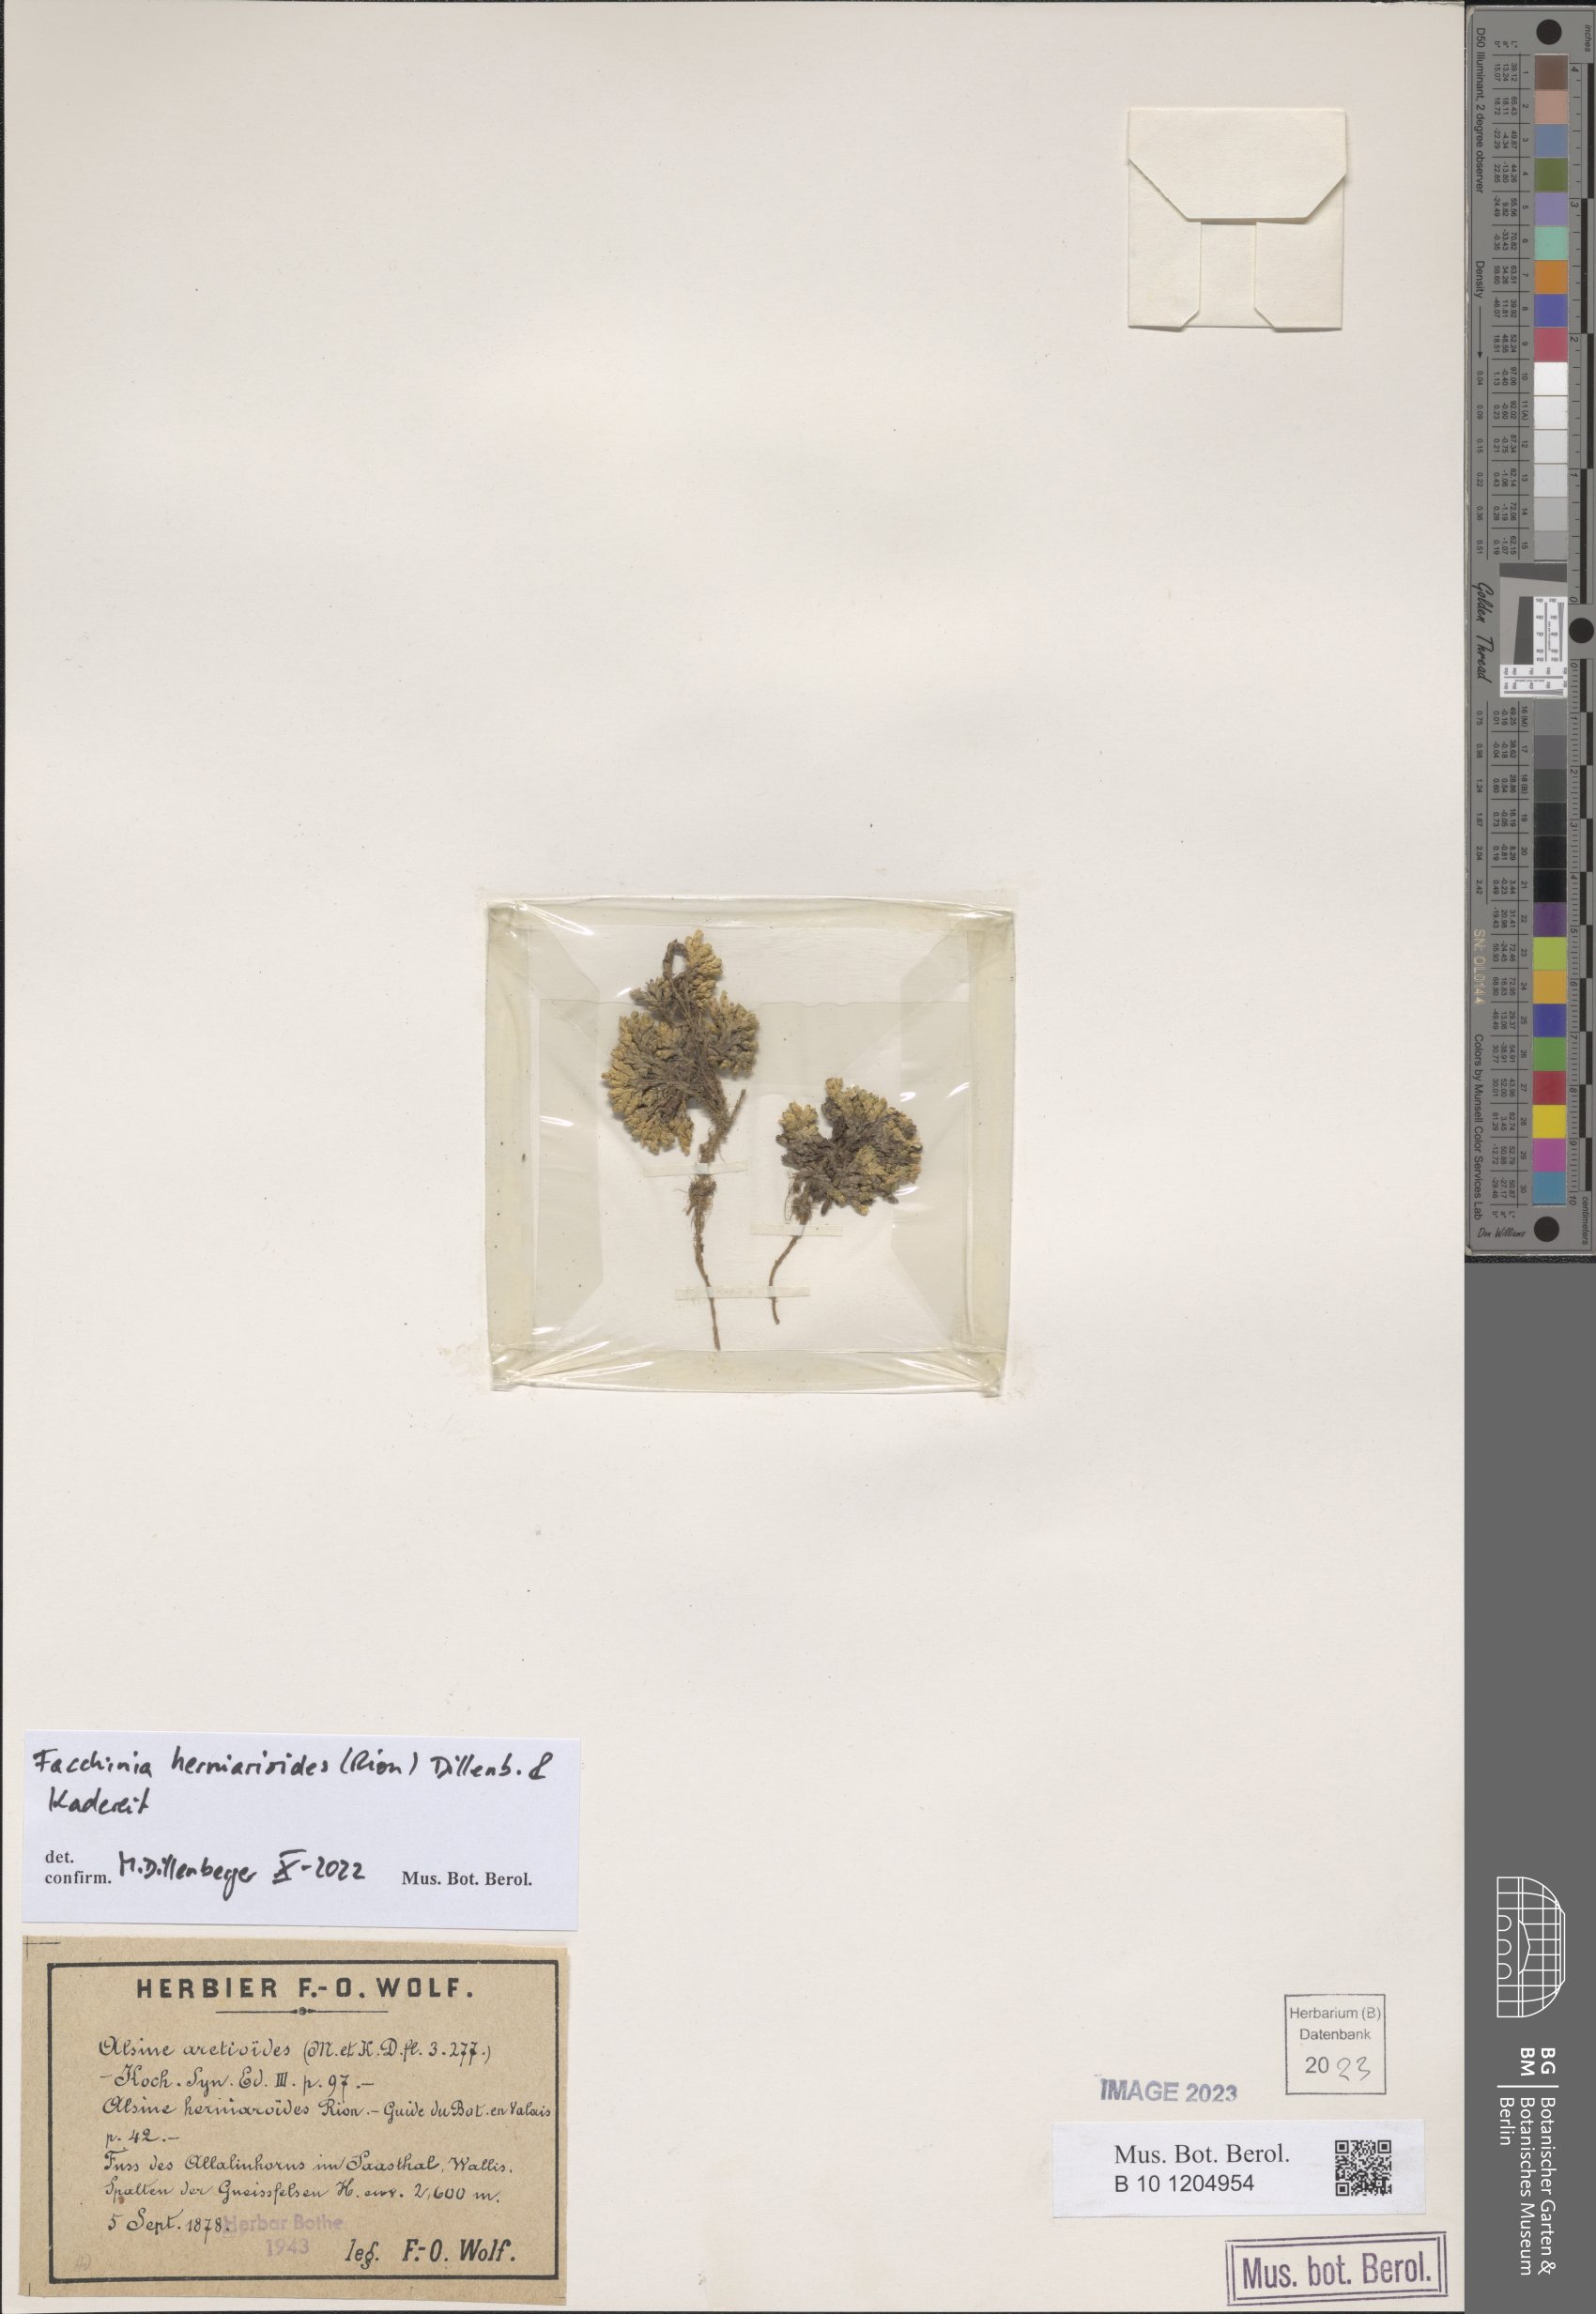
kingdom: Plantae
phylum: Tracheophyta
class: Magnoliopsida
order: Caryophyllales
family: Caryophyllaceae
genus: Facchinia
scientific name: Facchinia herniarioides
